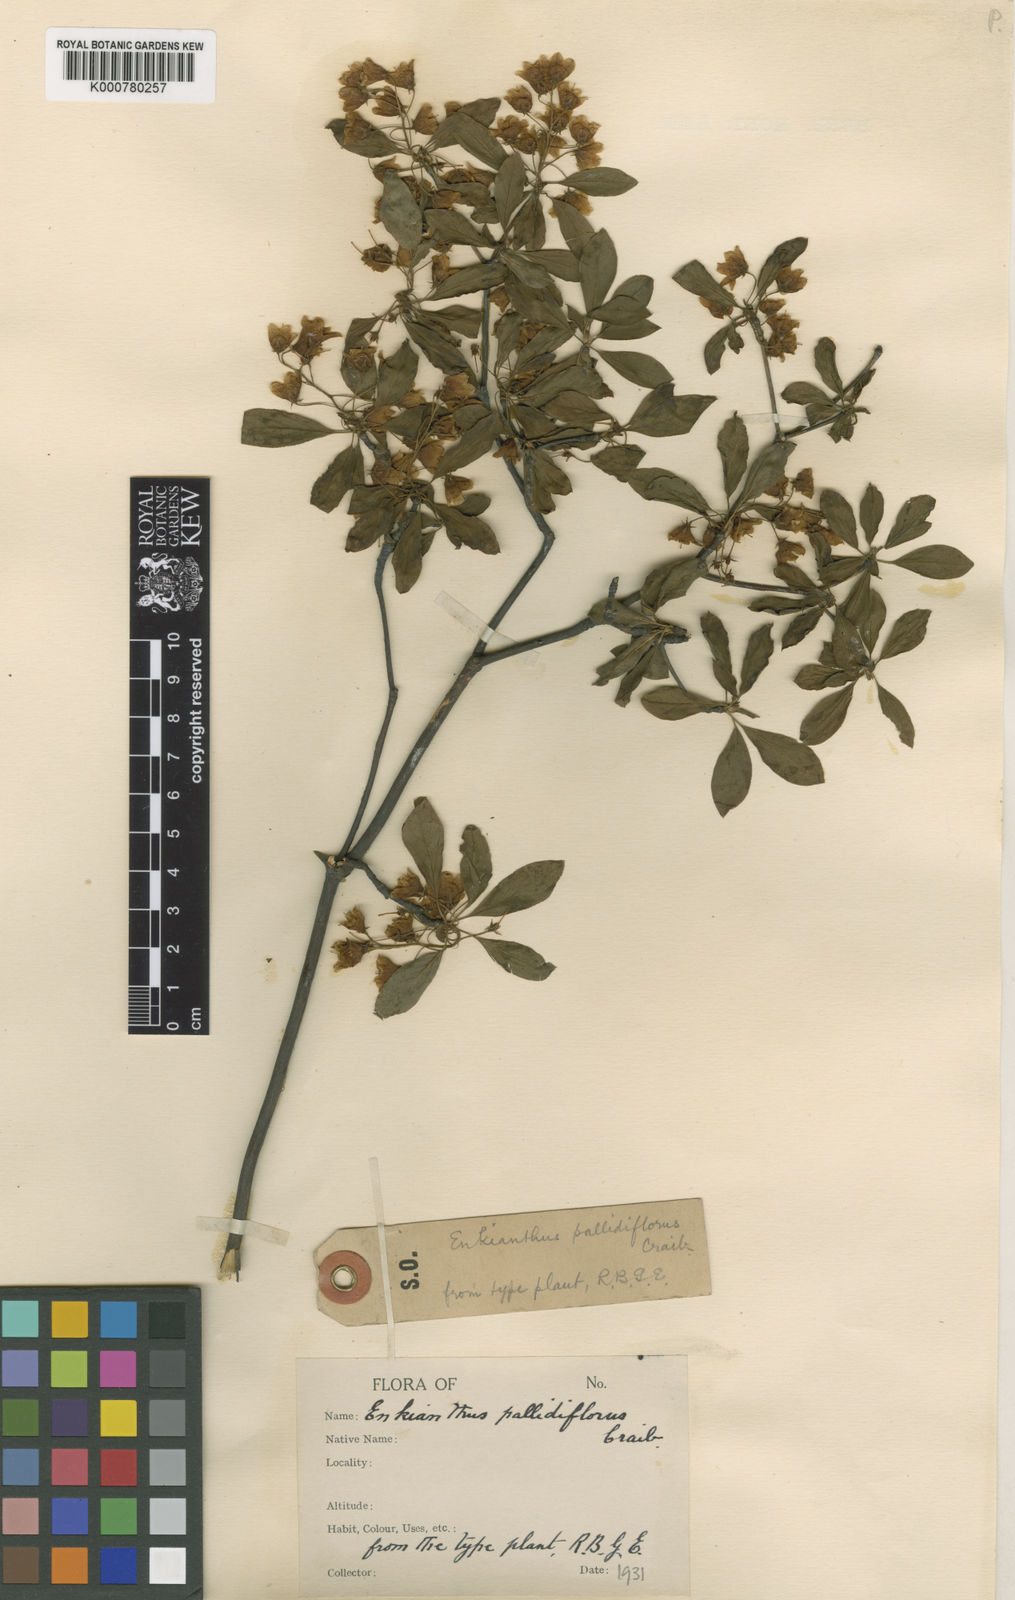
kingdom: Plantae
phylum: Tracheophyta
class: Magnoliopsida
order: Ericales
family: Ericaceae
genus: Enkianthus
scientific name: Enkianthus campanulatus
